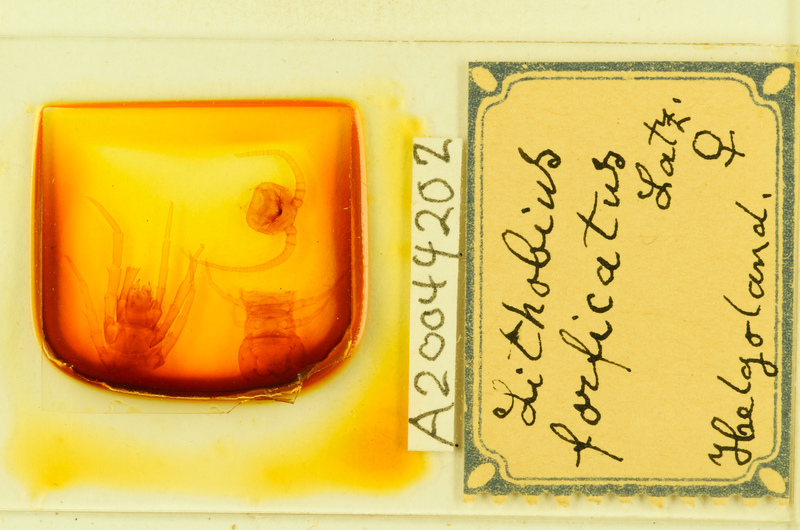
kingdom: Animalia
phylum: Arthropoda
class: Chilopoda
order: Lithobiomorpha
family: Lithobiidae
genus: Lithobius
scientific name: Lithobius forficatus
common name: Centipede
